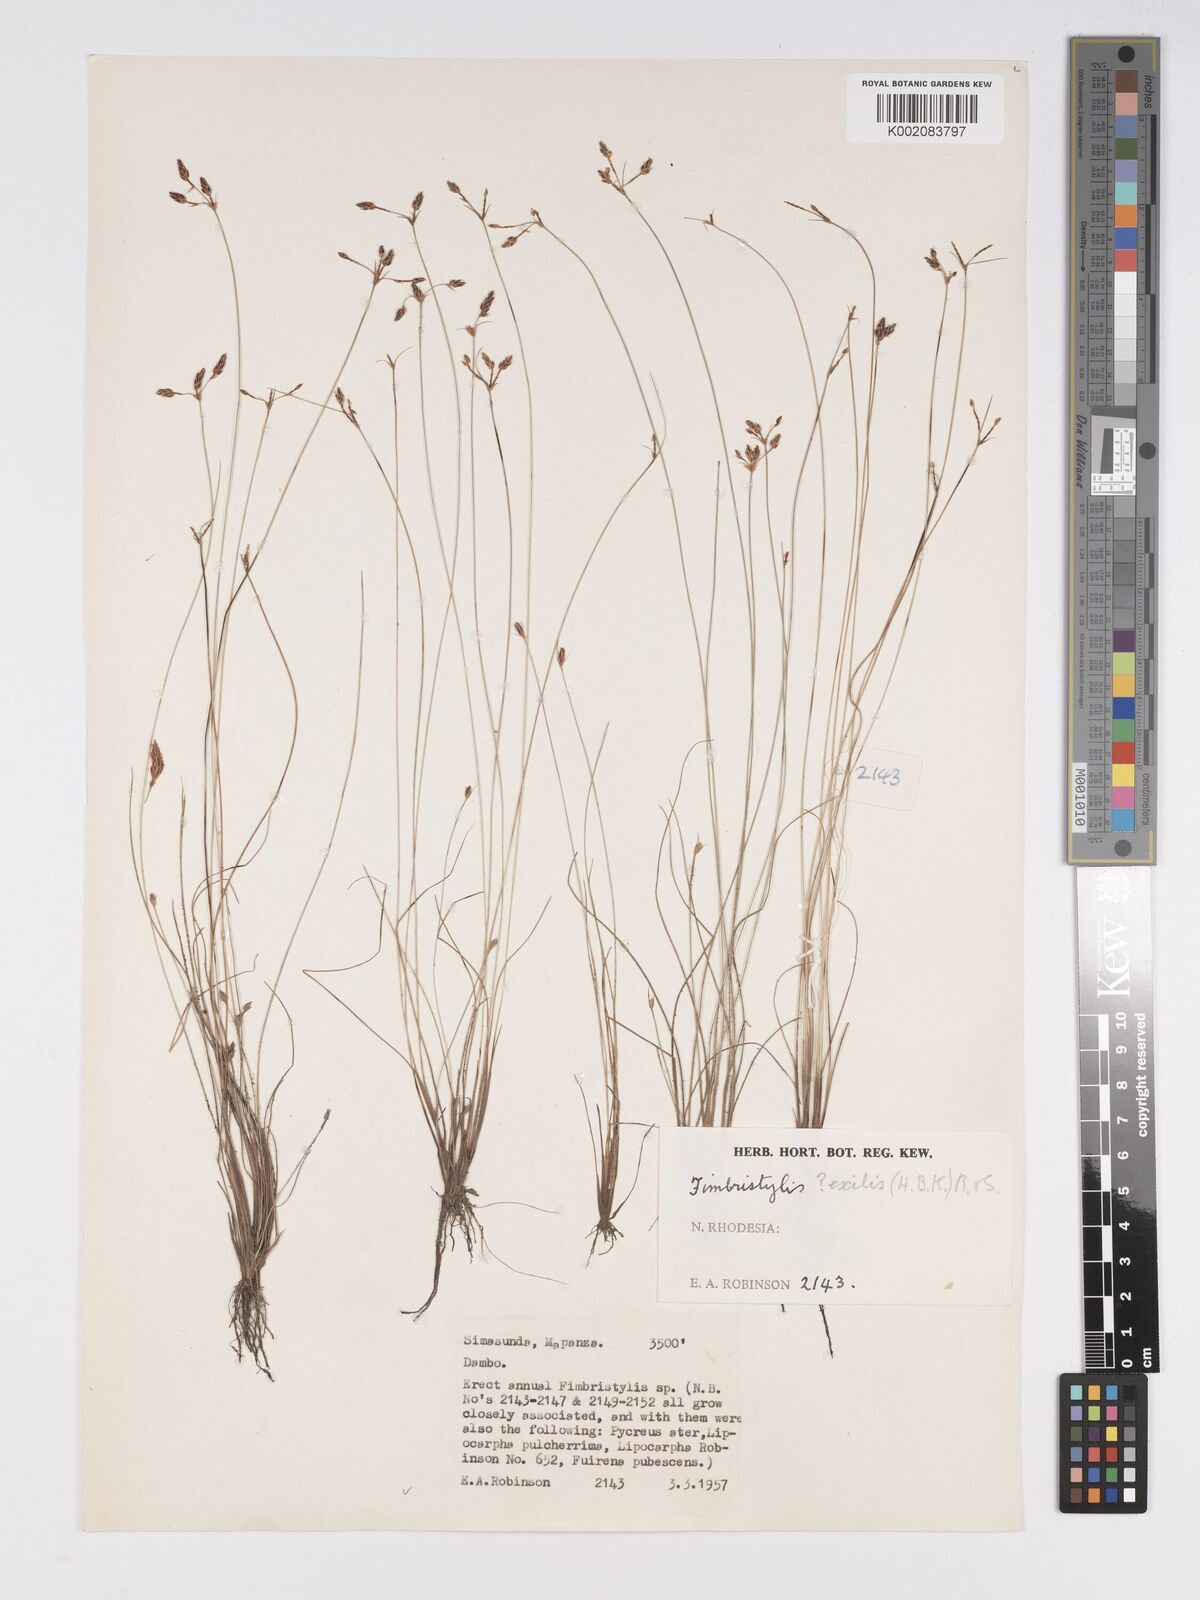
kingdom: Plantae
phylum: Tracheophyta
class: Liliopsida
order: Poales
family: Cyperaceae
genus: Bulbostylis
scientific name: Bulbostylis hispidula
